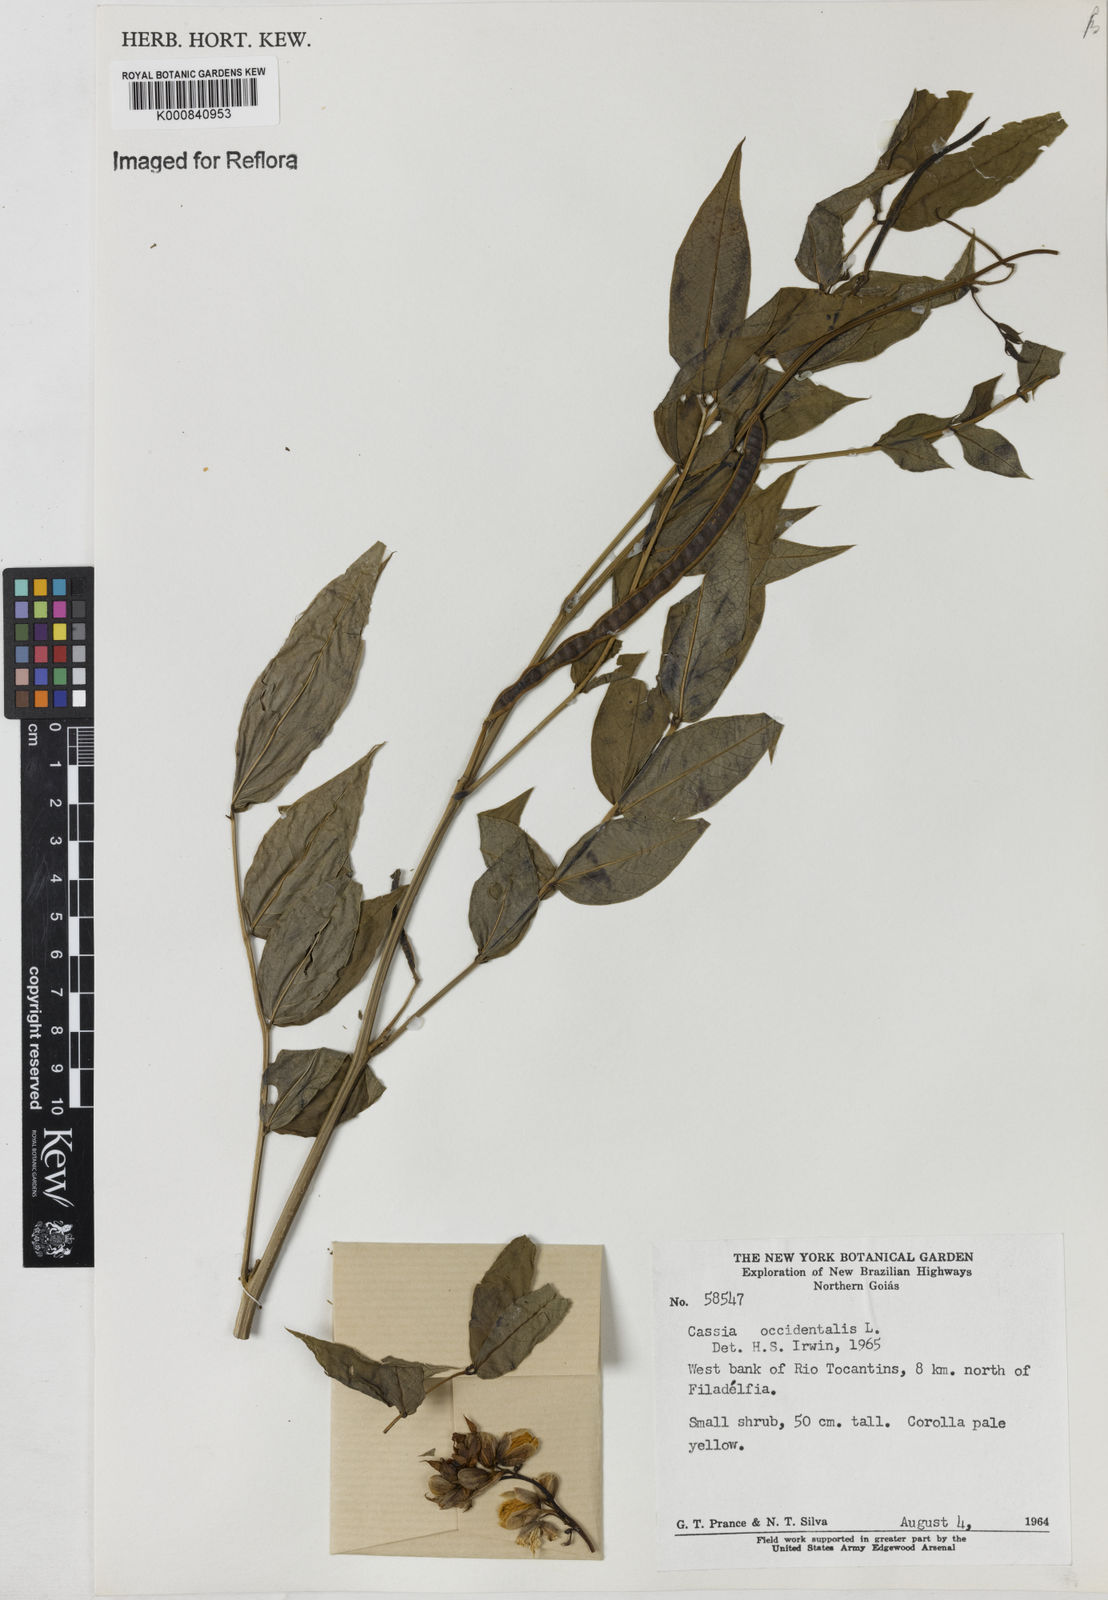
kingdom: Plantae
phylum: Tracheophyta
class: Magnoliopsida
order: Fabales
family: Fabaceae
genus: Senna
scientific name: Senna occidentalis
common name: Septicweed
